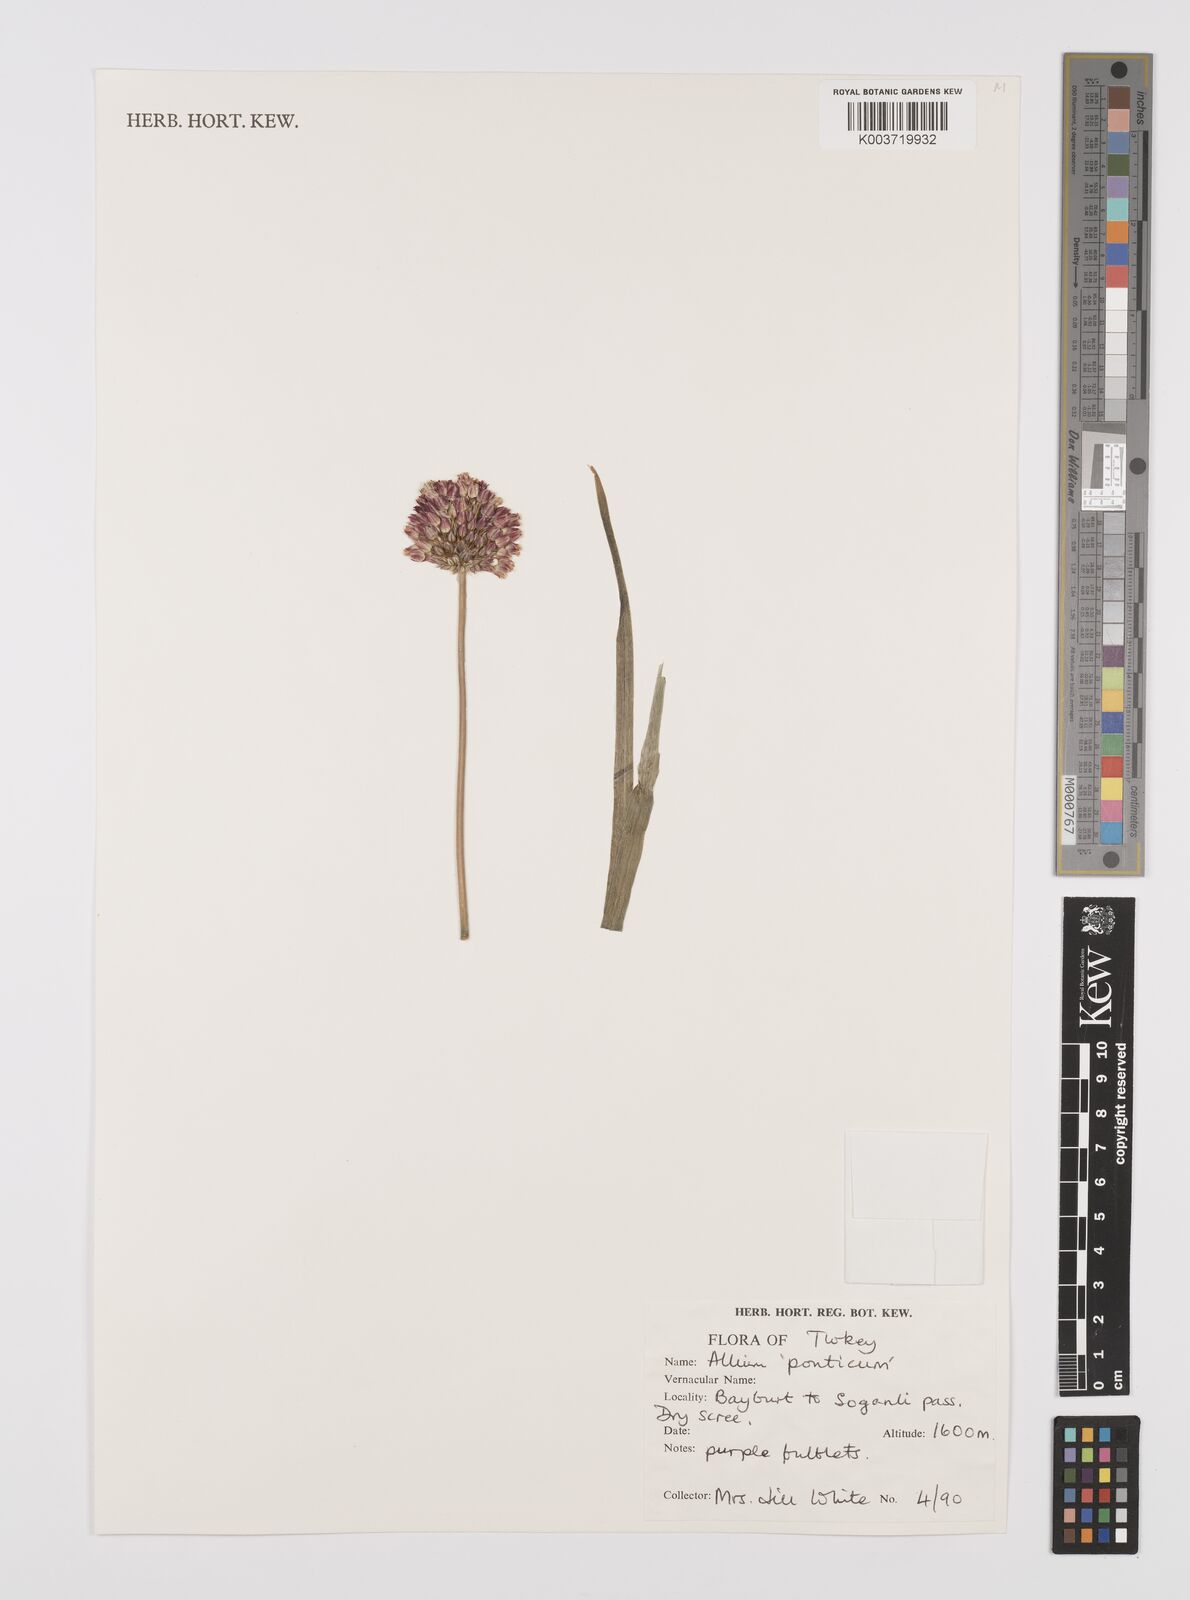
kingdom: Plantae
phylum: Tracheophyta
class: Liliopsida
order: Asparagales
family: Amaryllidaceae
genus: Allium
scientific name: Allium ponticum
